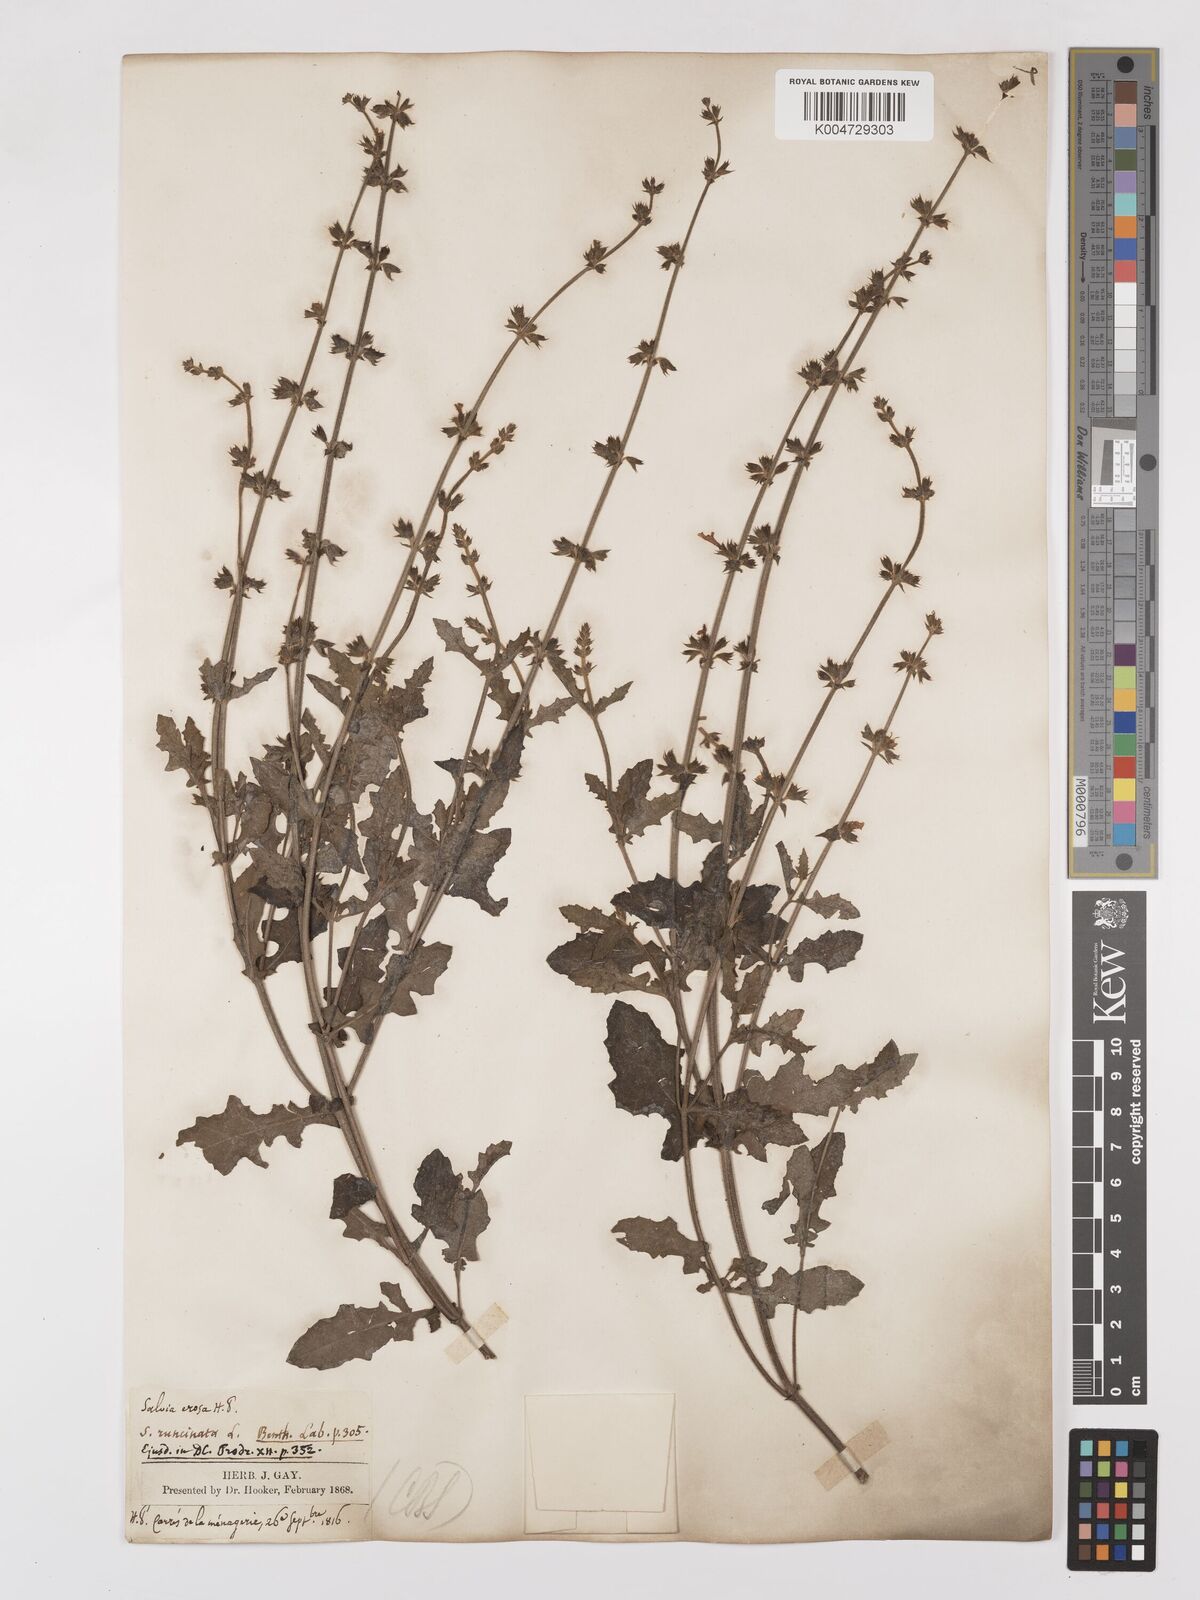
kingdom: Plantae
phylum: Tracheophyta
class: Magnoliopsida
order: Lamiales
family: Lamiaceae
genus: Salvia
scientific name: Salvia runcinata
